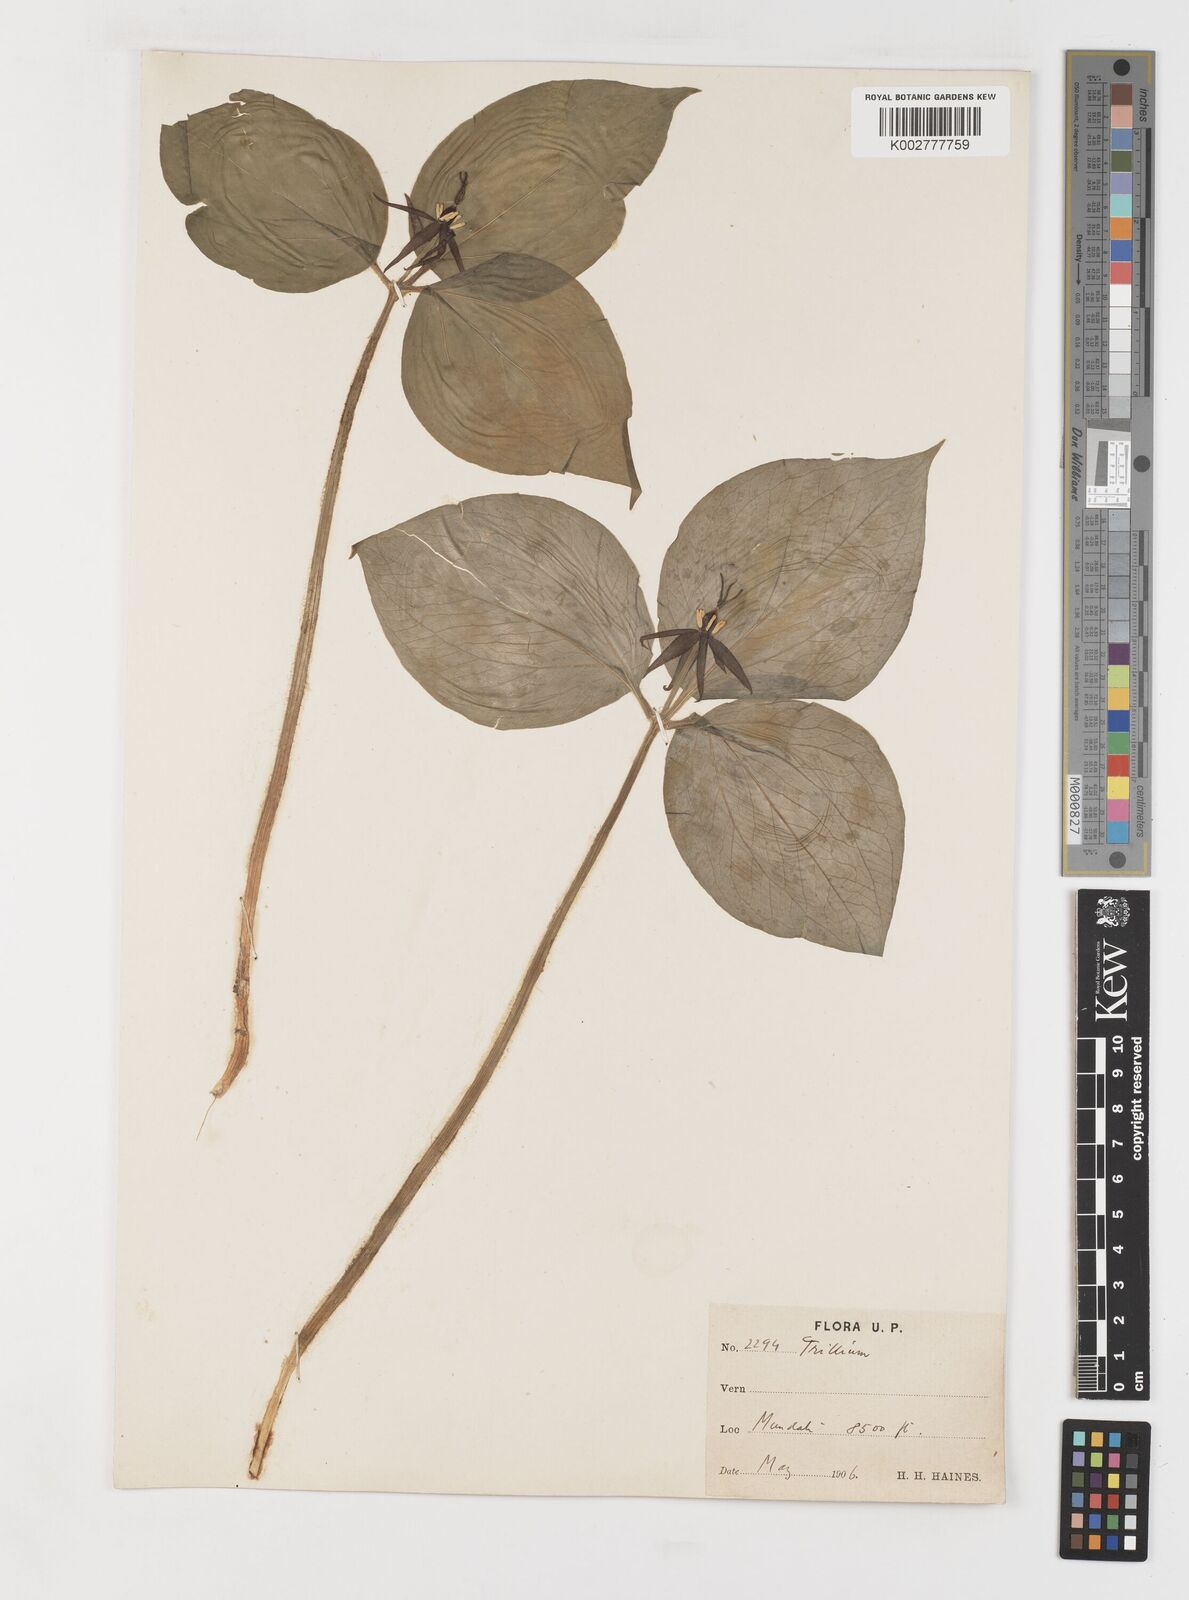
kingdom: Plantae
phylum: Tracheophyta
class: Liliopsida
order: Liliales
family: Melanthiaceae
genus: Trillium
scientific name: Trillium govanianum
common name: Himalayan trillium
